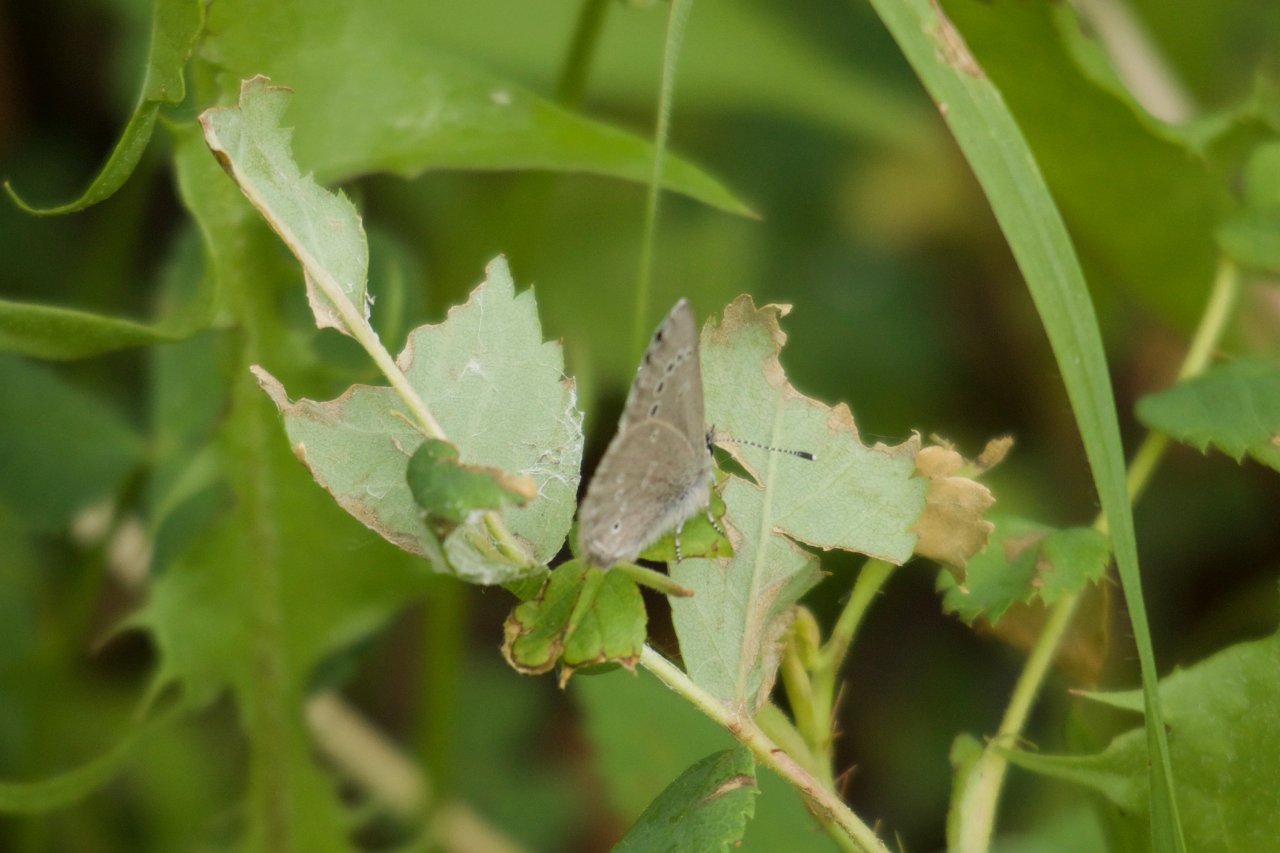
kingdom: Animalia
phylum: Arthropoda
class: Insecta
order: Lepidoptera
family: Lycaenidae
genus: Glaucopsyche
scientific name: Glaucopsyche lygdamus
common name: Silvery Blue
